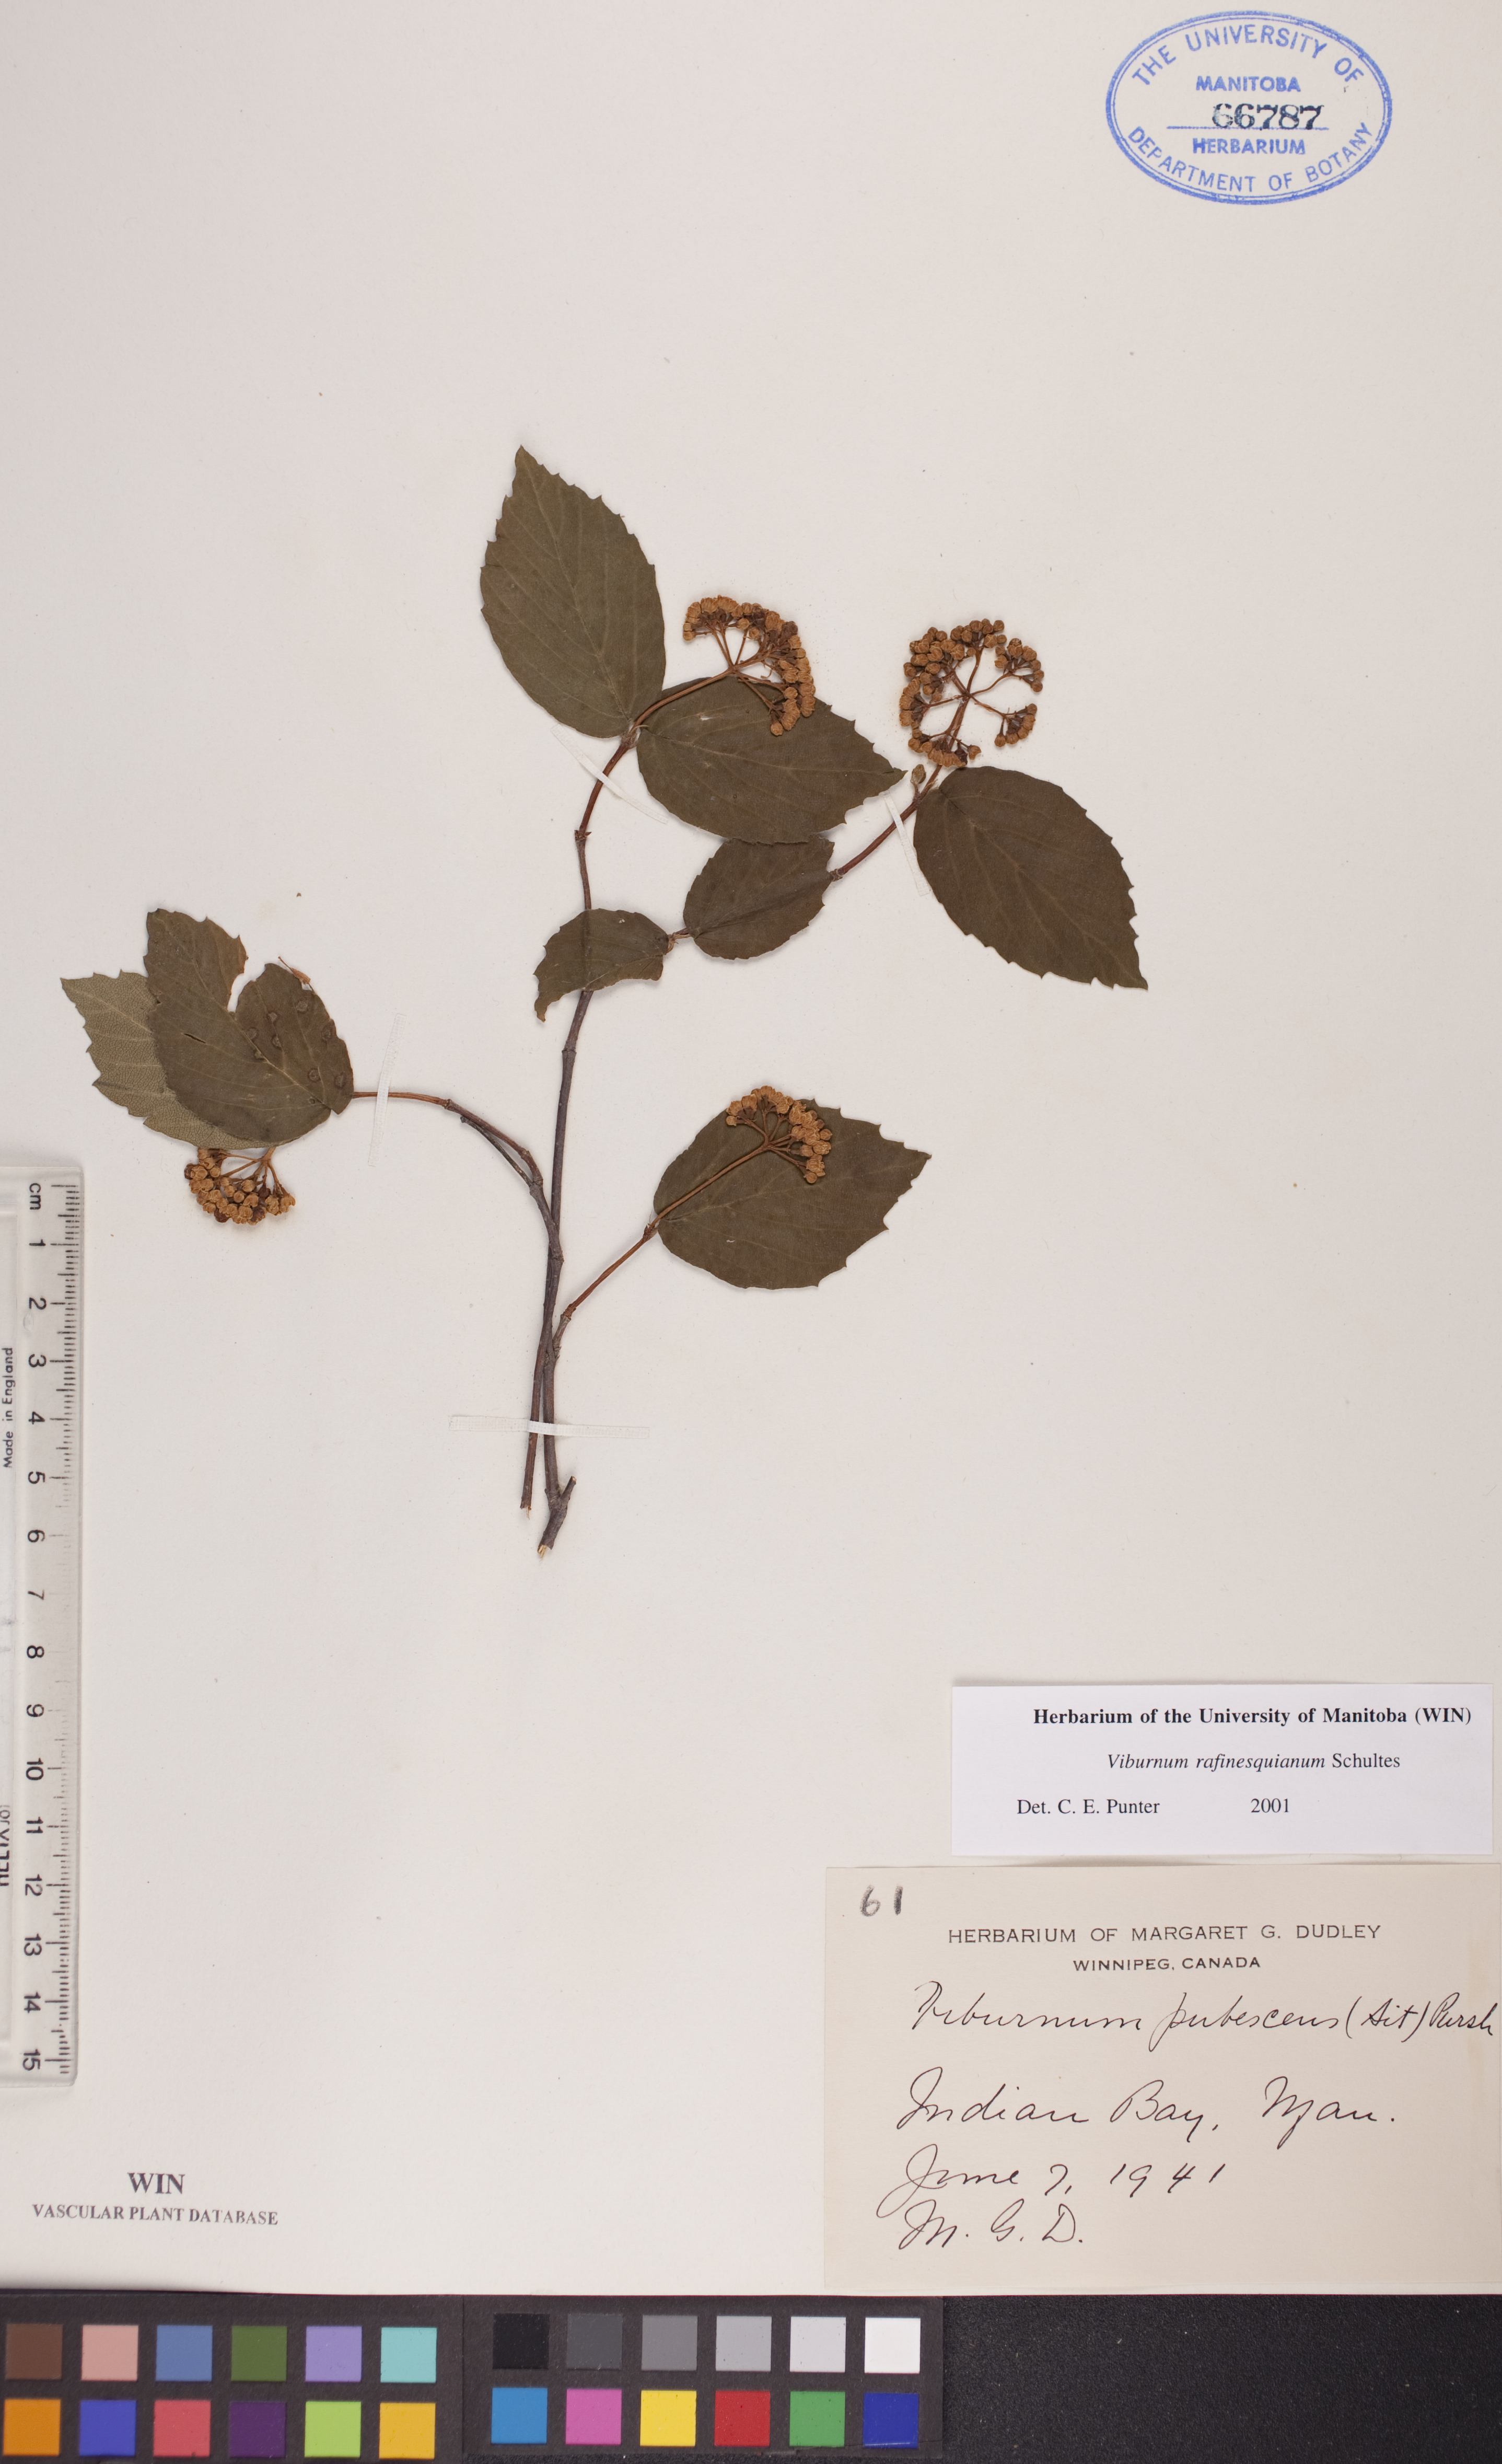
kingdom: Plantae
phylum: Tracheophyta
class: Magnoliopsida
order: Dipsacales
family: Viburnaceae
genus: Viburnum
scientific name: Viburnum rafinesquianum
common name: Downy arrow-wood
